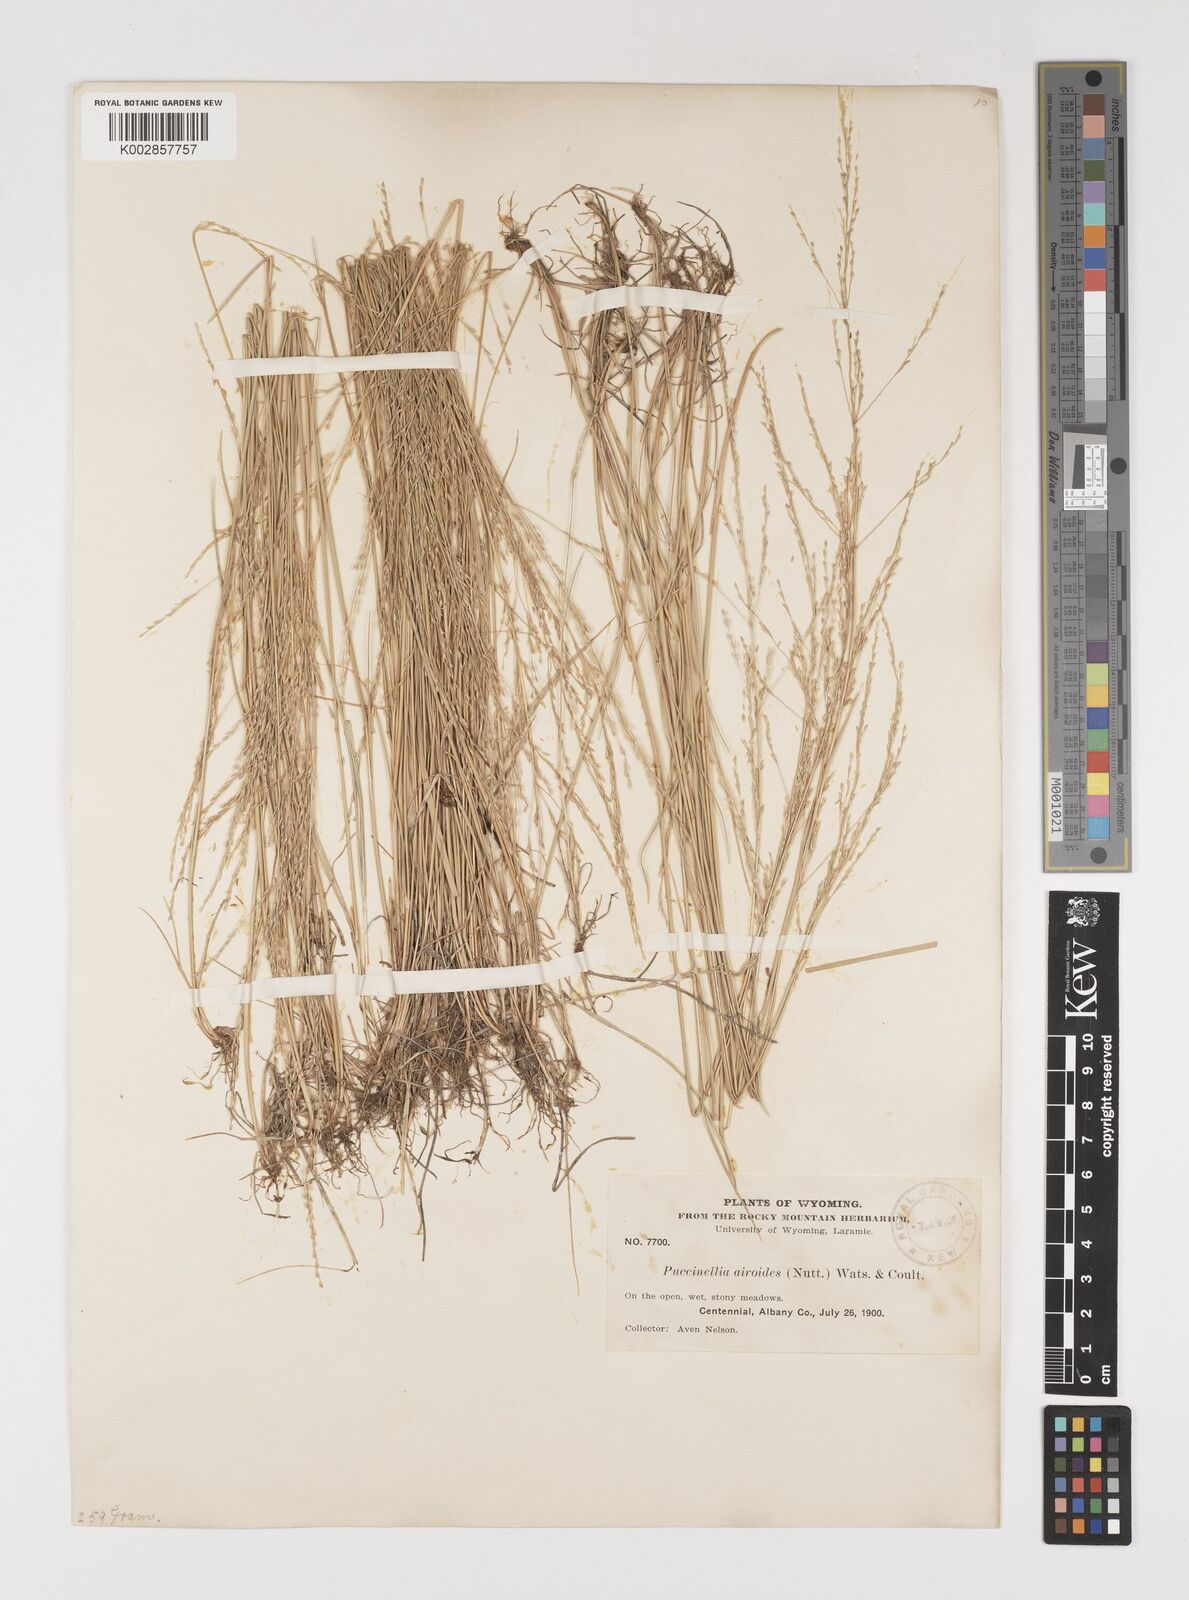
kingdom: Plantae
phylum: Tracheophyta
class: Liliopsida
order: Poales
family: Poaceae
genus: Puccinellia
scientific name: Puccinellia nuttalliana
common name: Nuttall's alkali grass
